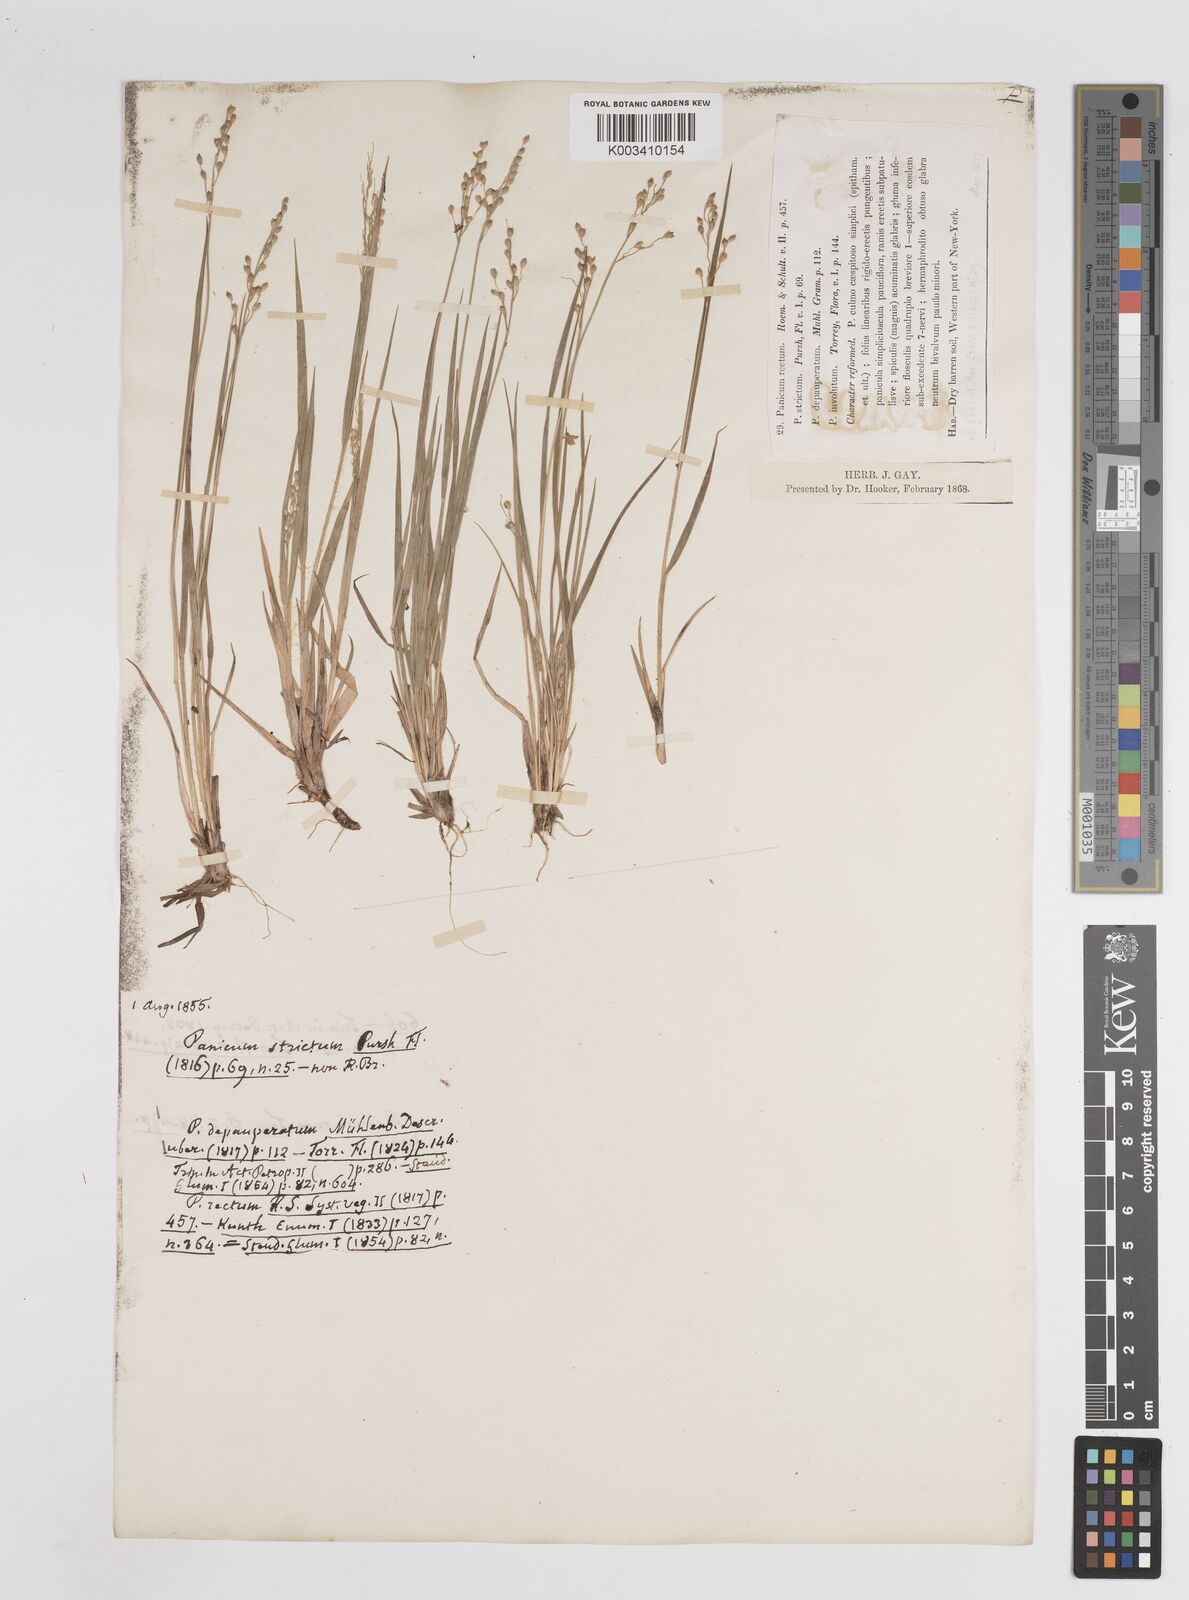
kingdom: Plantae
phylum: Tracheophyta
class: Liliopsida
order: Poales
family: Poaceae
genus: Dichanthelium
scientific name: Dichanthelium depauperatum
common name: Depauperate panicgrass
